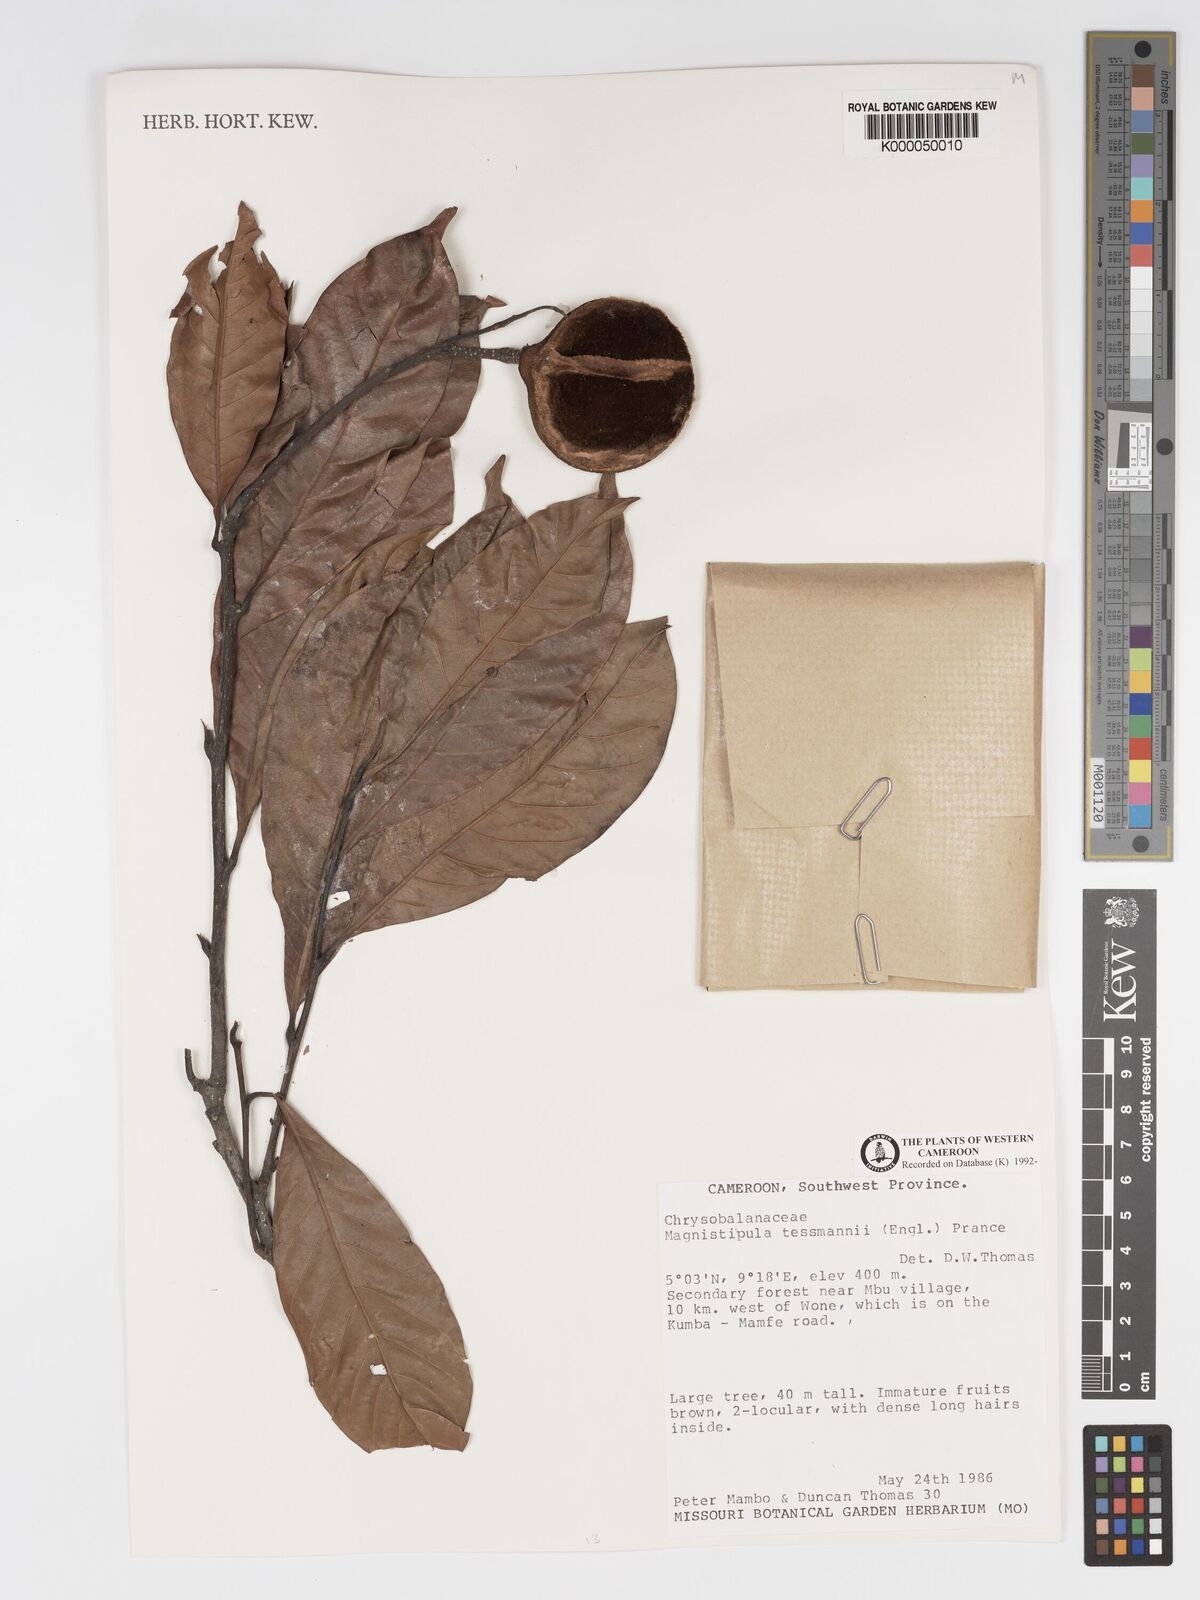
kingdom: Plantae
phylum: Tracheophyta
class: Magnoliopsida
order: Malpighiales
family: Chrysobalanaceae
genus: Magnistipula
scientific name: Magnistipula tessmannii
